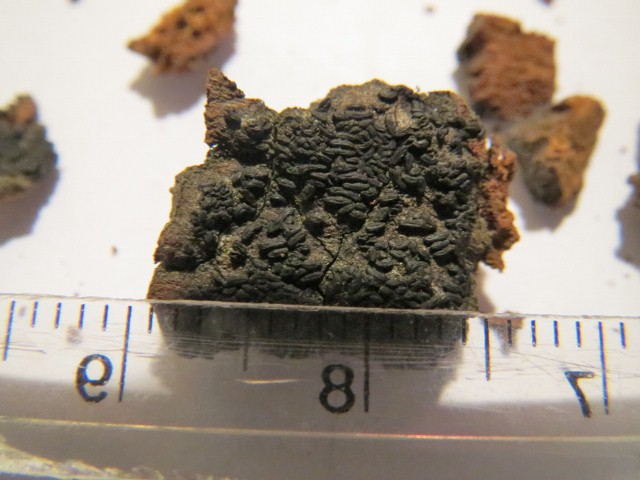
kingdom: Fungi
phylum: Ascomycota
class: Dothideomycetes
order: Hysteriales
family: Hysteriaceae
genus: Hysterium
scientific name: Hysterium acuminatum
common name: almindelig kulmund
